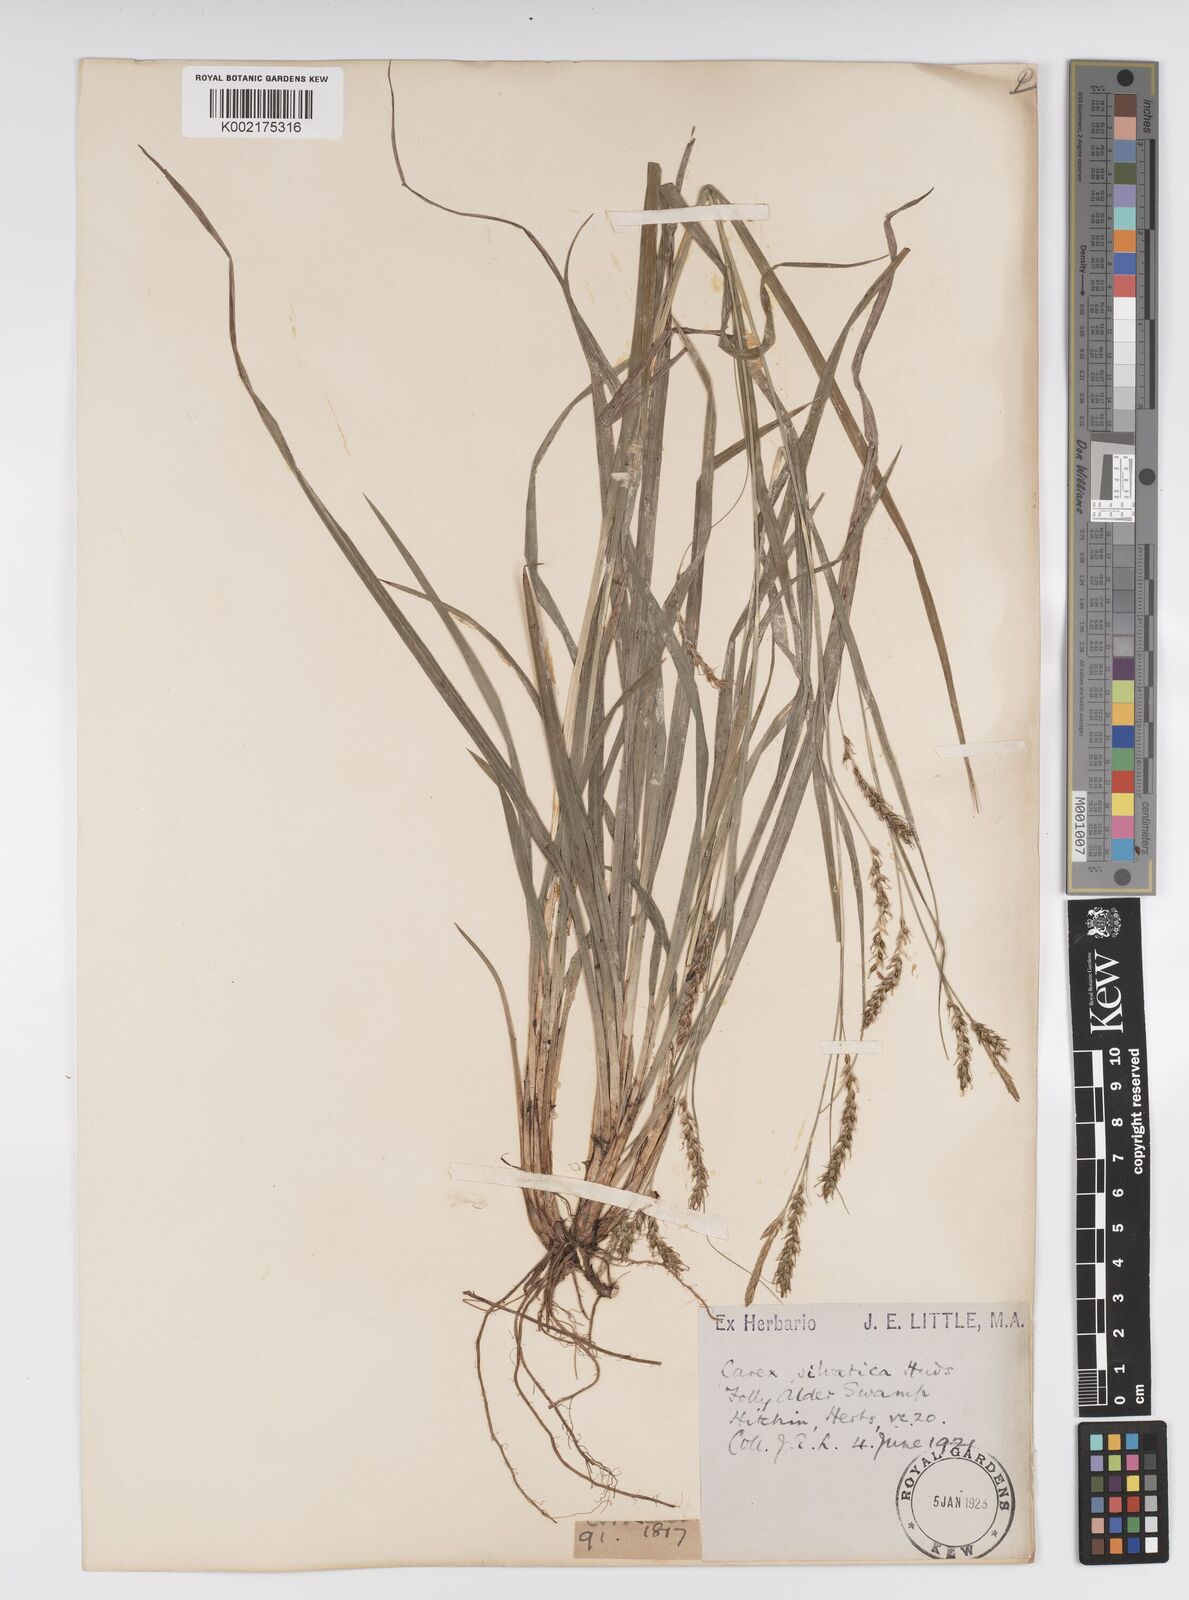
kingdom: Plantae
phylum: Tracheophyta
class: Liliopsida
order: Poales
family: Cyperaceae
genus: Carex
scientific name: Carex sylvatica
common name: Wood-sedge
